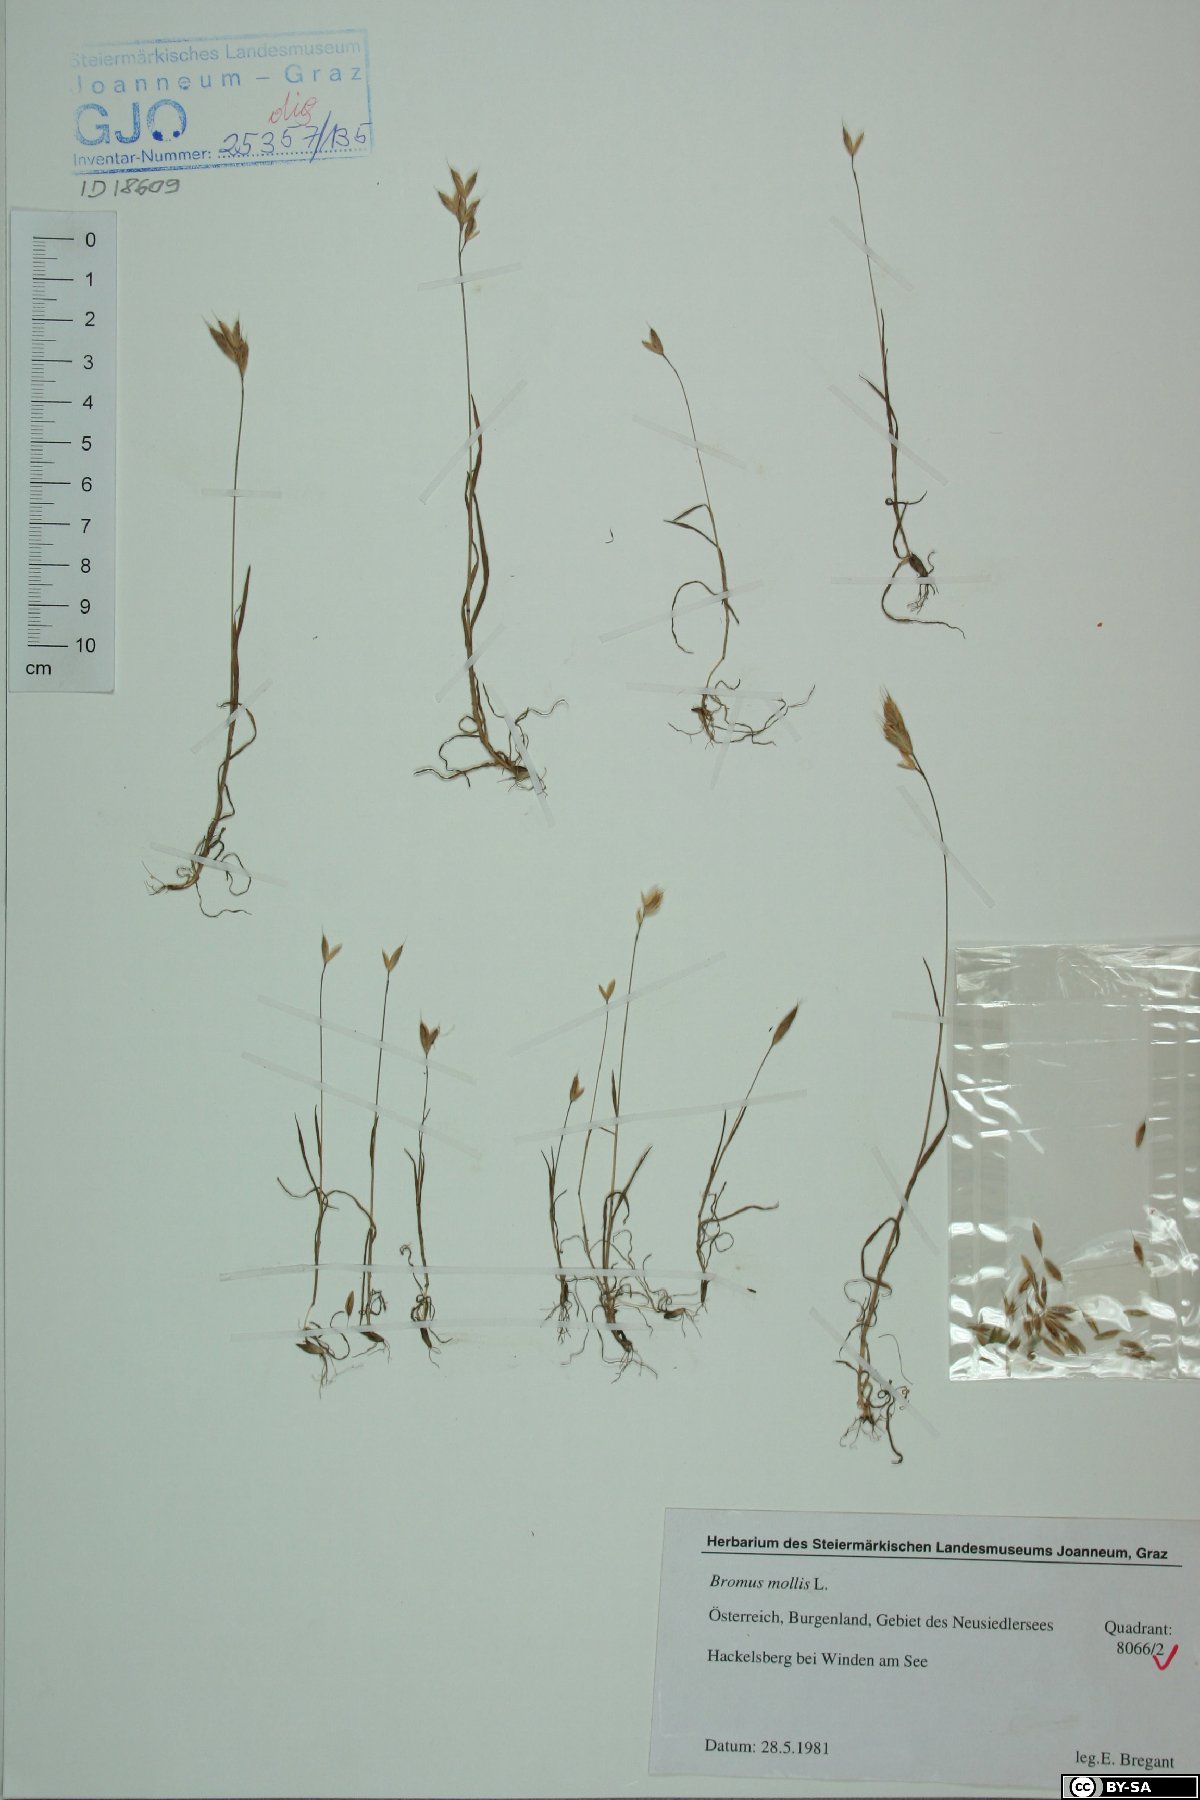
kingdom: Plantae
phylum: Tracheophyta
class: Liliopsida
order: Poales
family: Poaceae
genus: Bromus
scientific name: Bromus hordeaceus
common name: Soft brome
